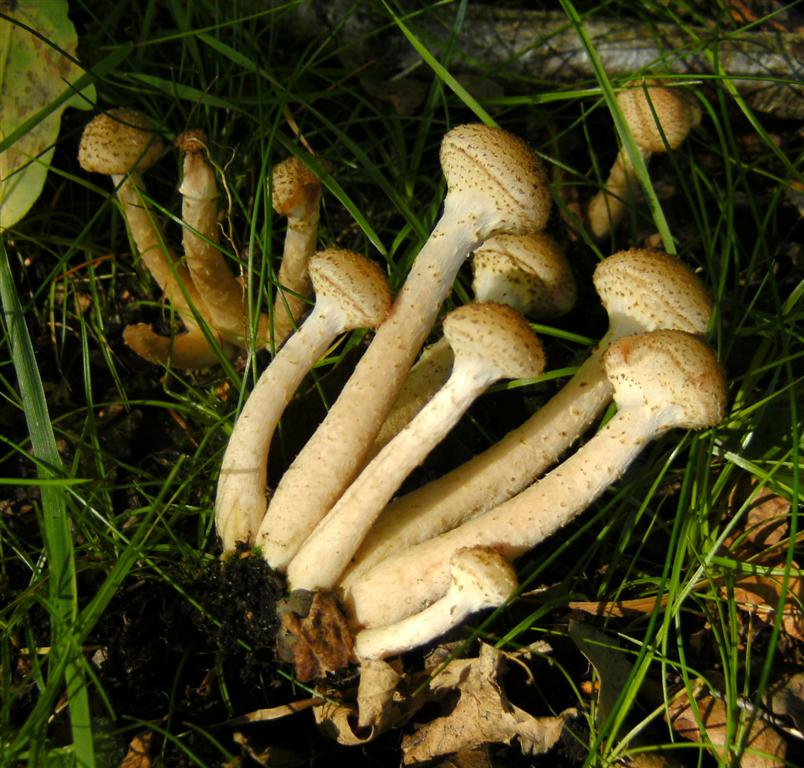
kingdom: Fungi
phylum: Basidiomycota
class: Agaricomycetes
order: Agaricales
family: Physalacriaceae
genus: Armillaria
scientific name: Armillaria ostoyae
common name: mørk honningsvamp
